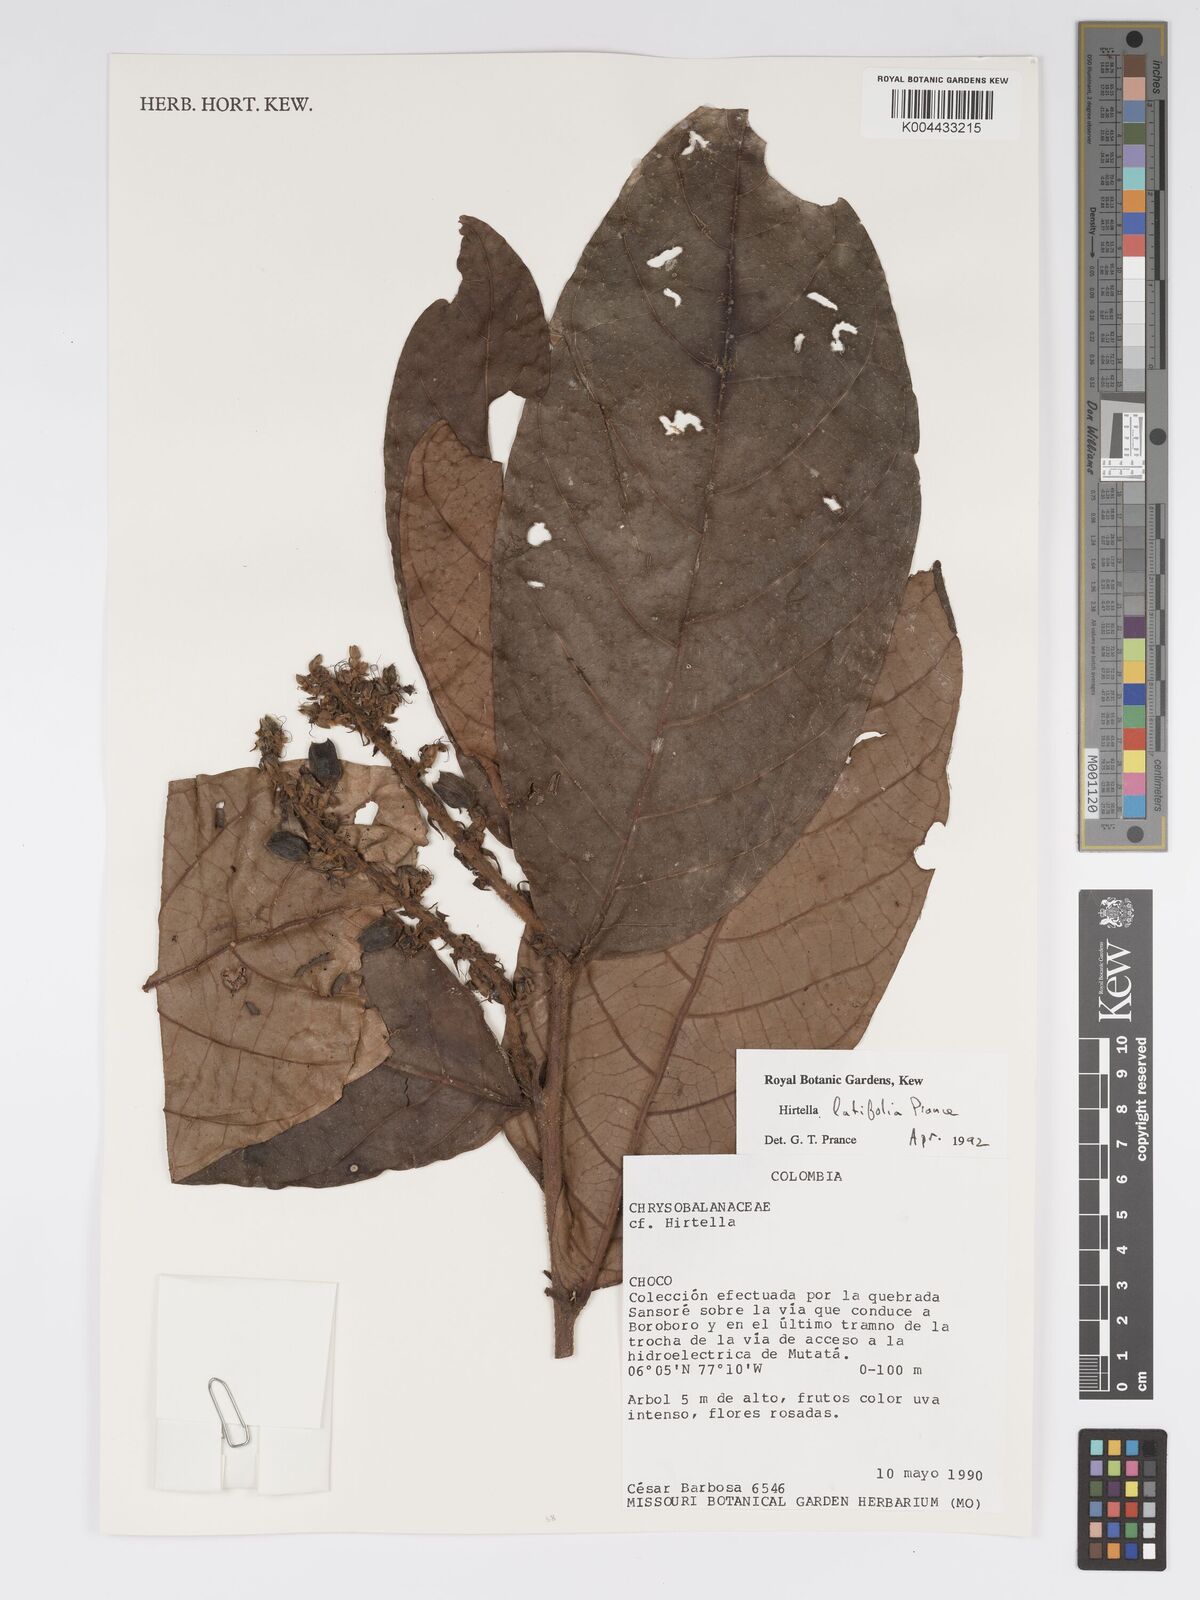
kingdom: Plantae
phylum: Tracheophyta
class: Magnoliopsida
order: Malpighiales
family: Chrysobalanaceae
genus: Hirtella
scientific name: Hirtella latifolia
